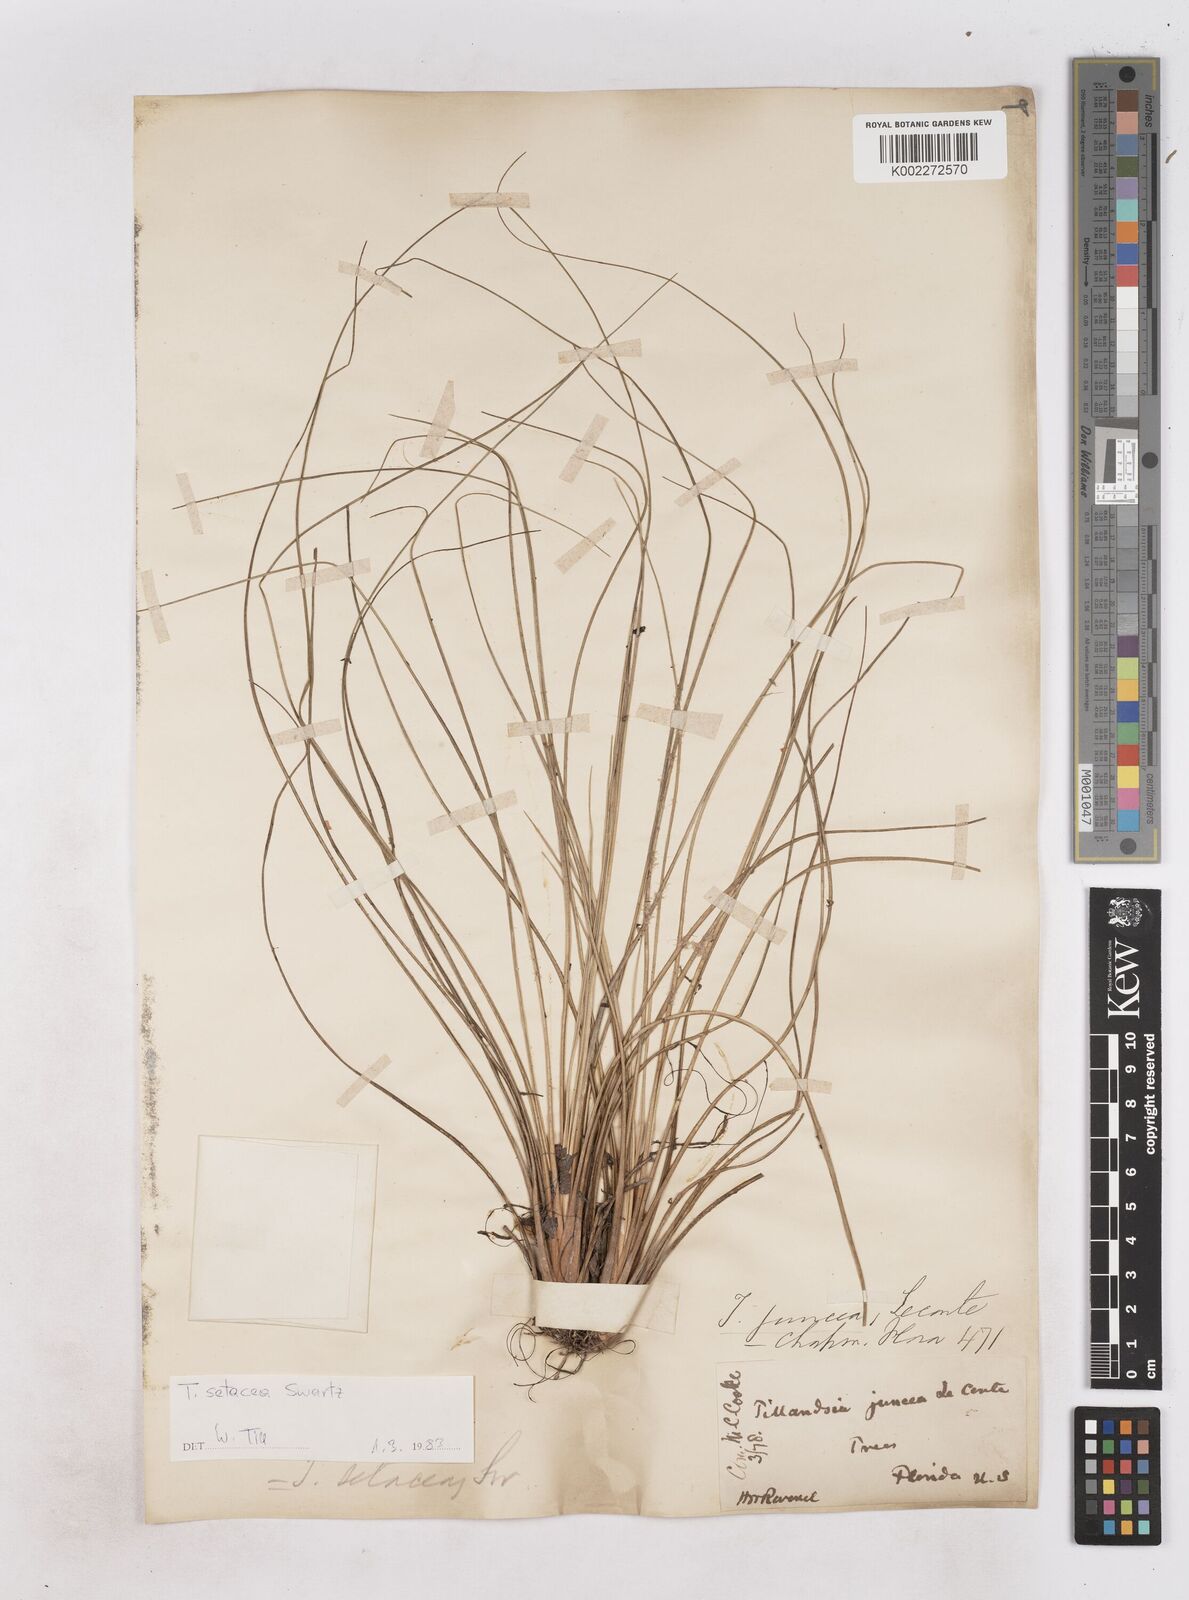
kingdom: Plantae
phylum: Tracheophyta
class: Liliopsida
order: Poales
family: Bromeliaceae
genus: Tillandsia
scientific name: Tillandsia
